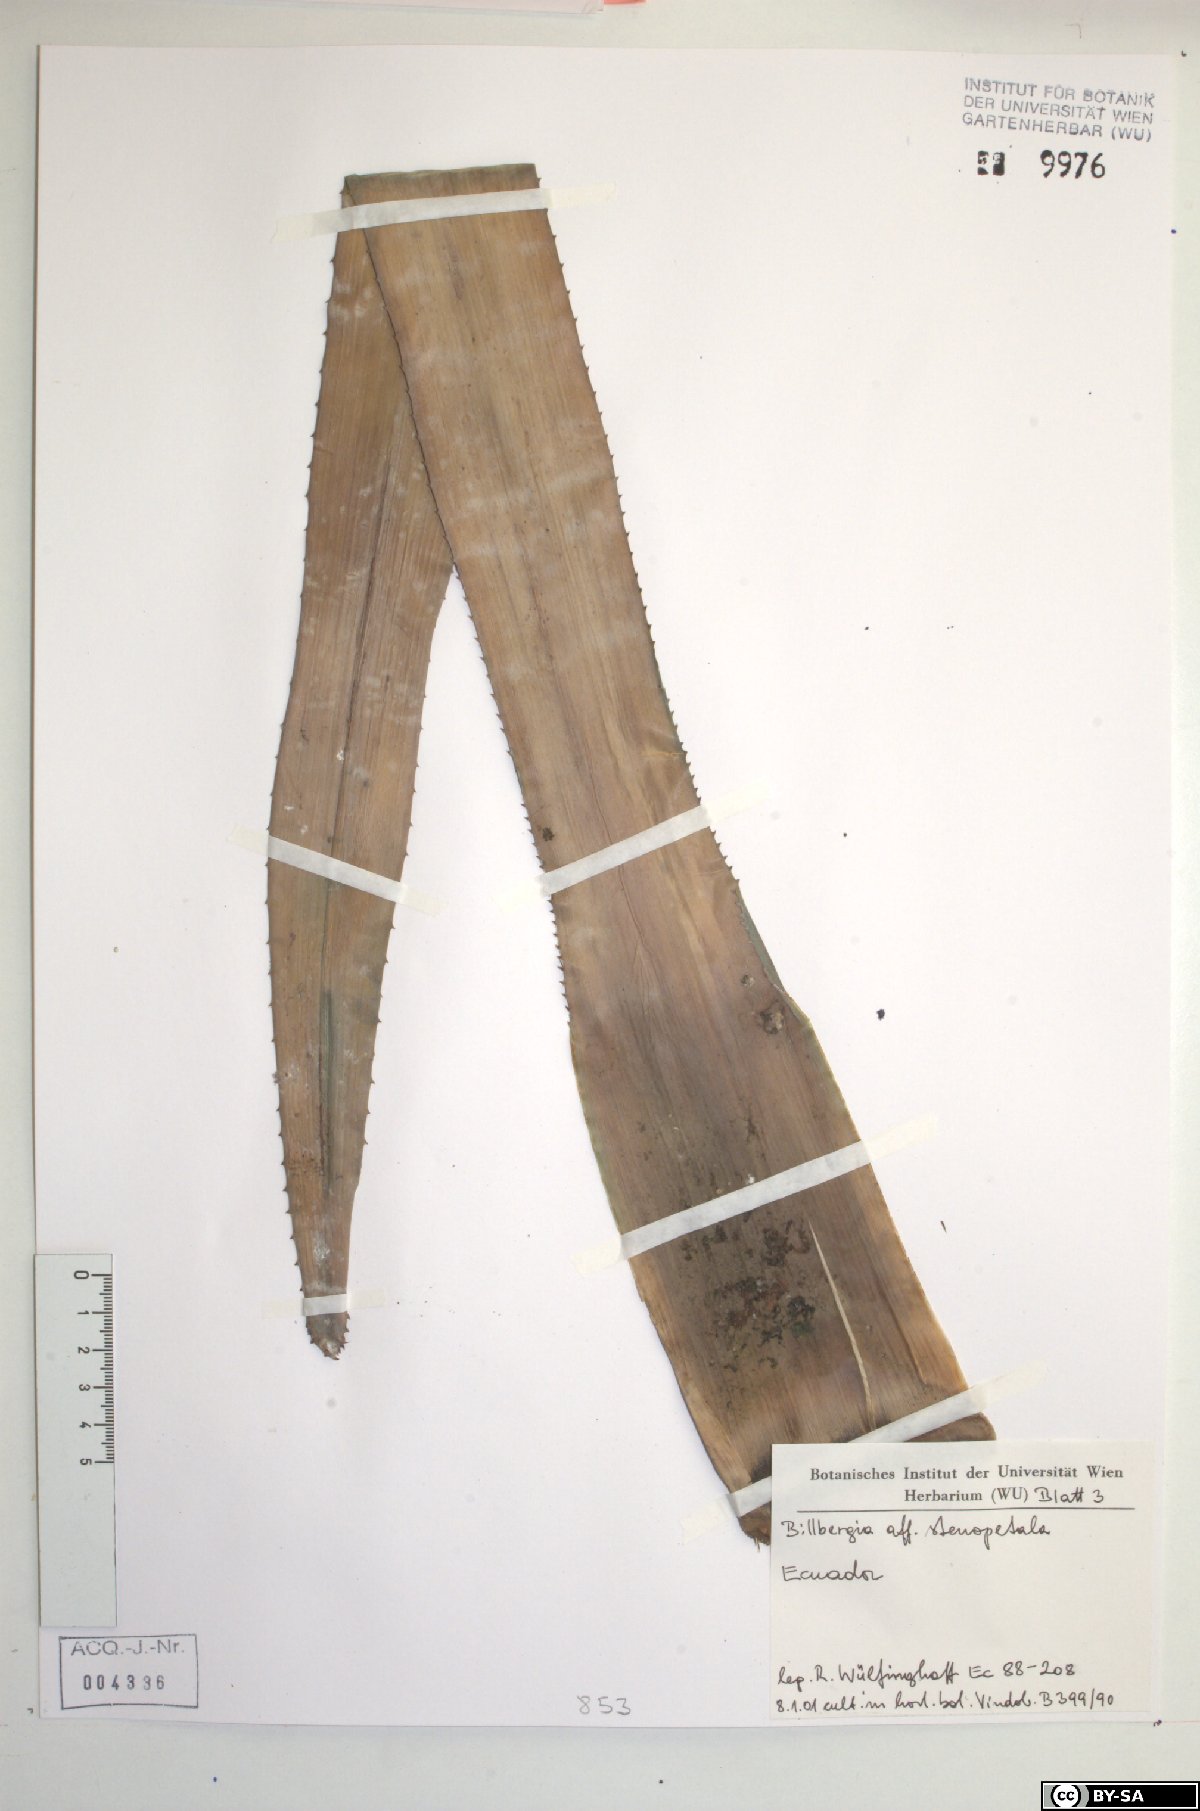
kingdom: Plantae
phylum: Tracheophyta
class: Liliopsida
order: Poales
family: Bromeliaceae
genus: Billbergia
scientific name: Billbergia stenopetala
